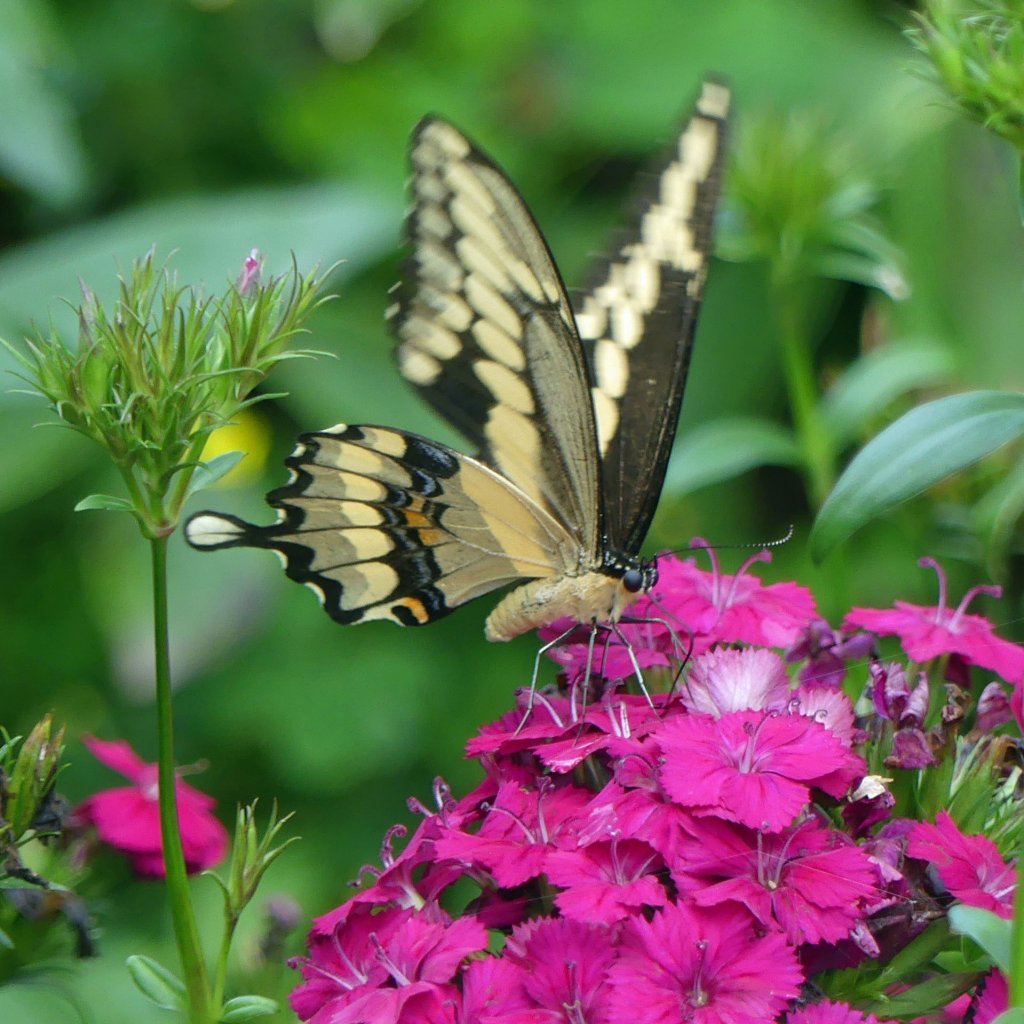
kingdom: Animalia
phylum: Arthropoda
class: Insecta
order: Lepidoptera
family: Papilionidae
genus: Papilio
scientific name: Papilio cresphontes
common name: Eastern Giant Swallowtail
